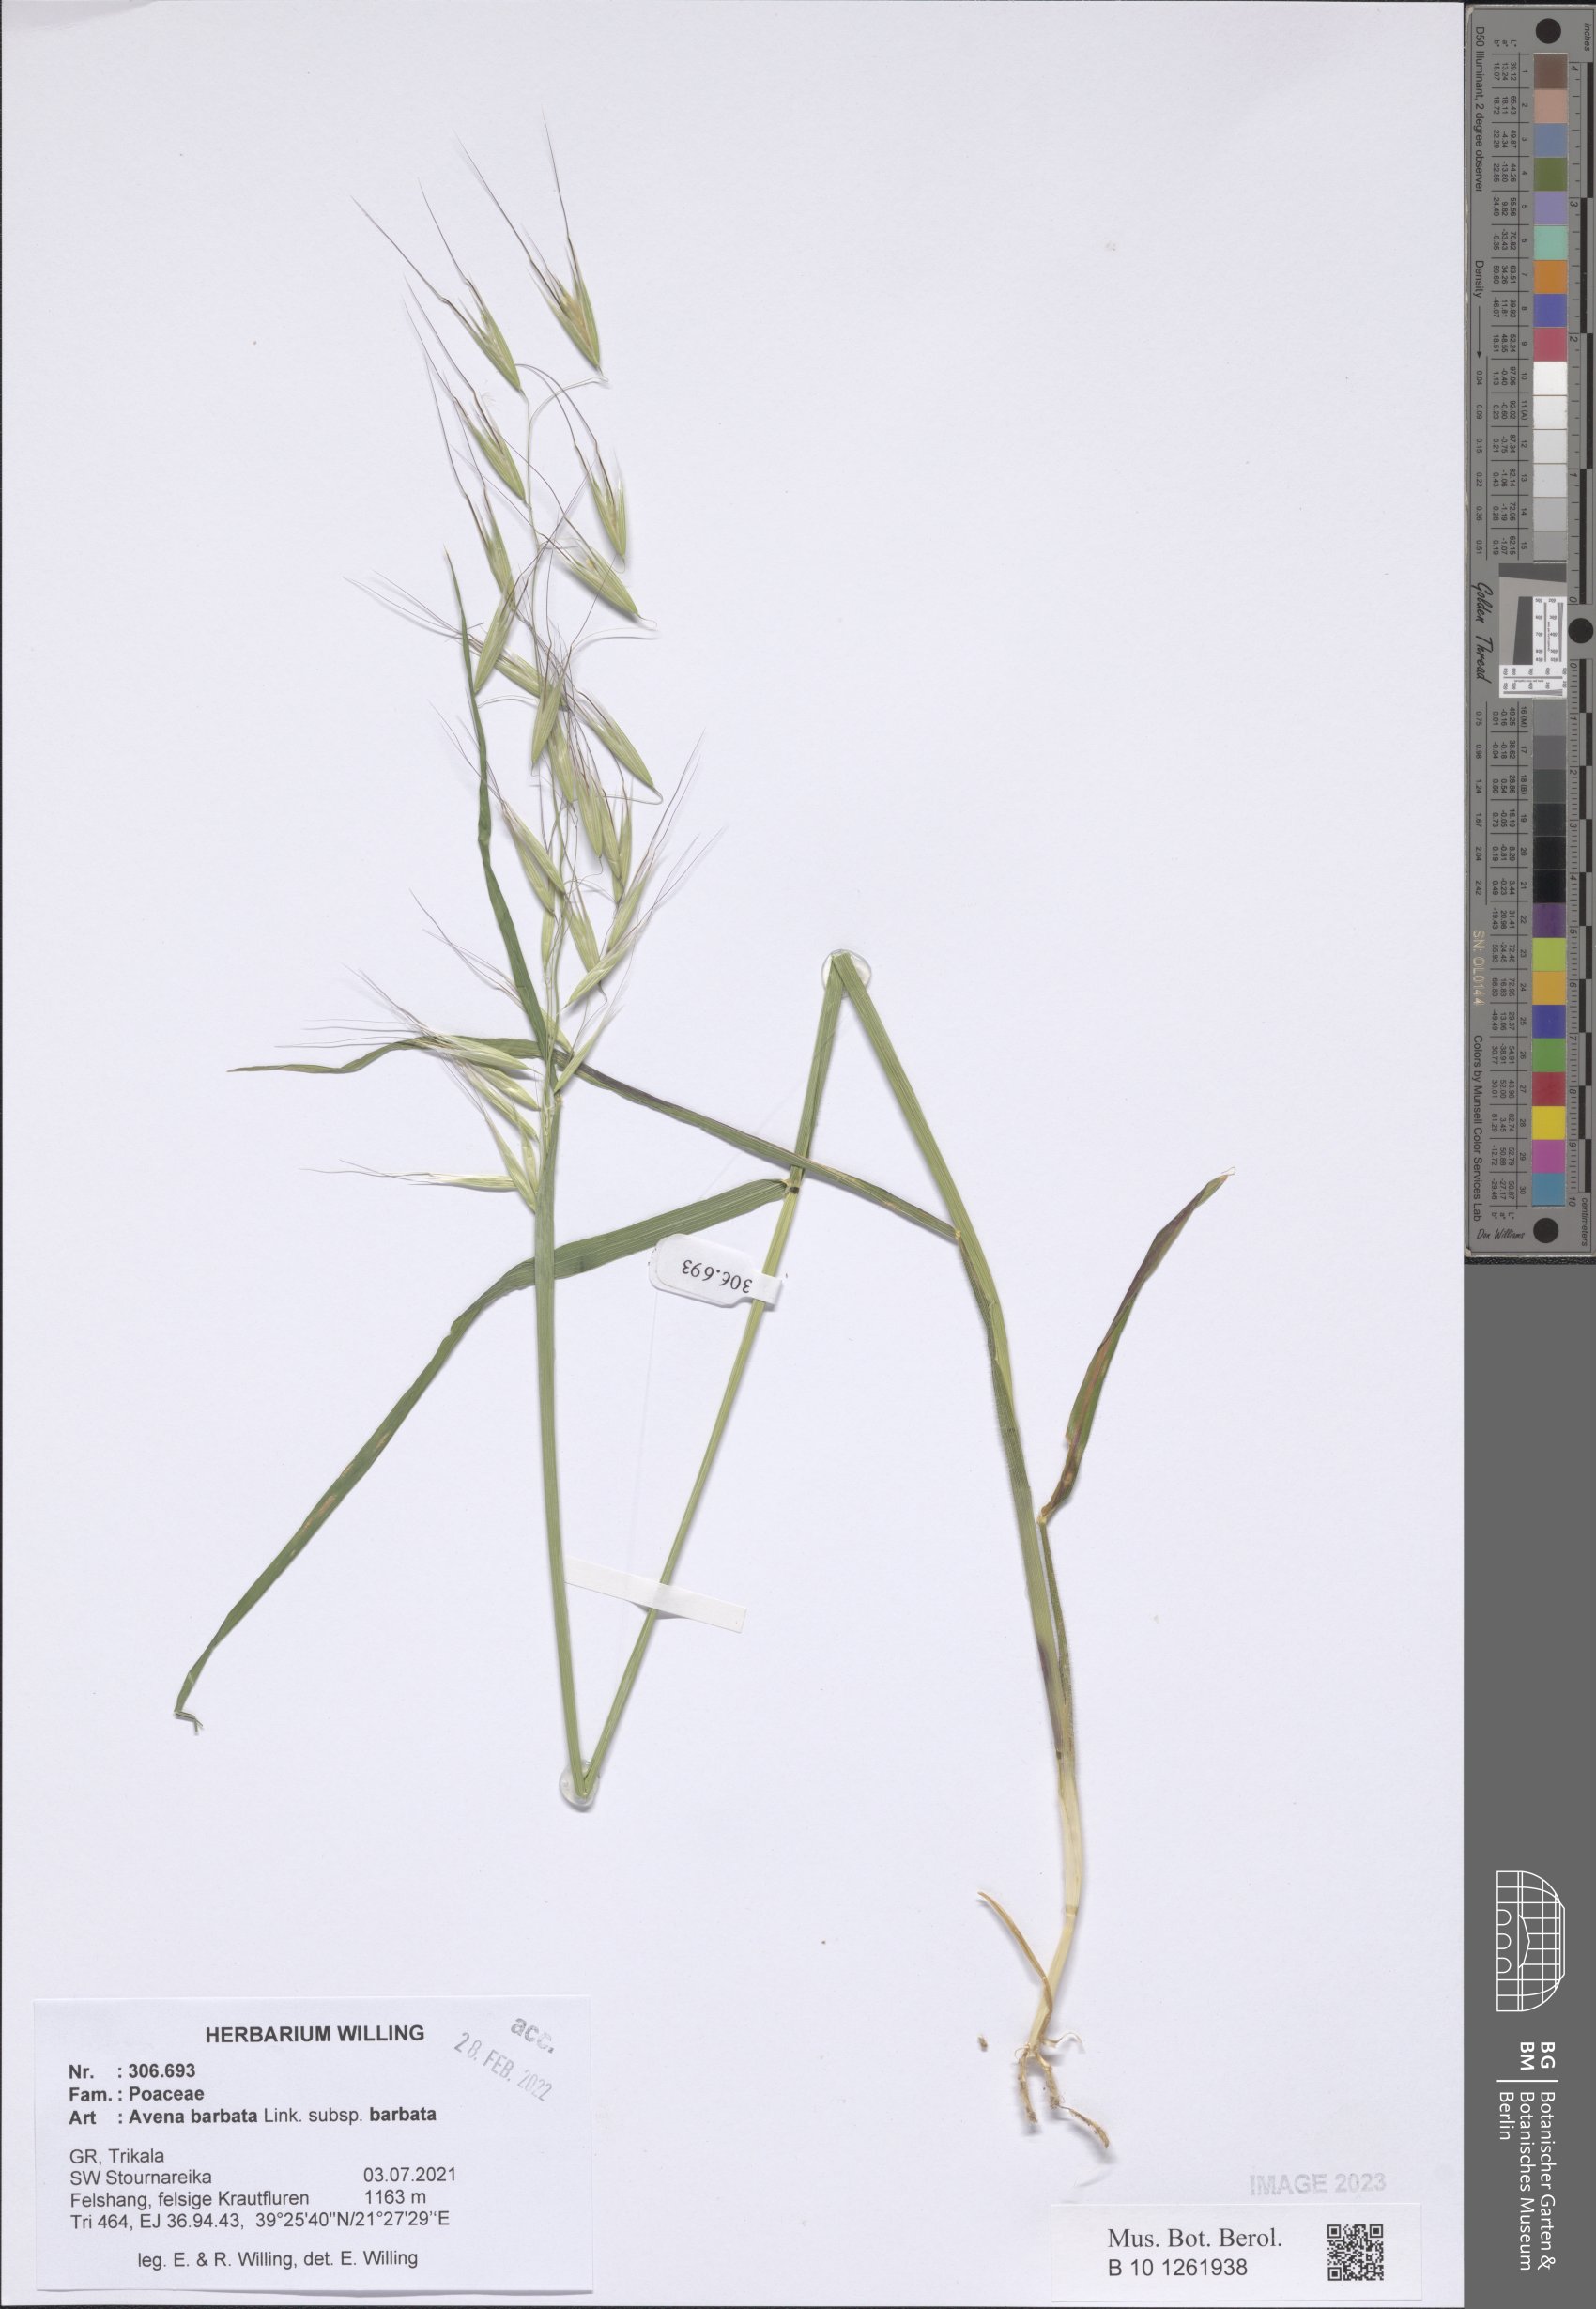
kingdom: Plantae
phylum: Tracheophyta
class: Liliopsida
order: Poales
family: Poaceae
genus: Avena
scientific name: Avena barbata
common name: Slender oat
